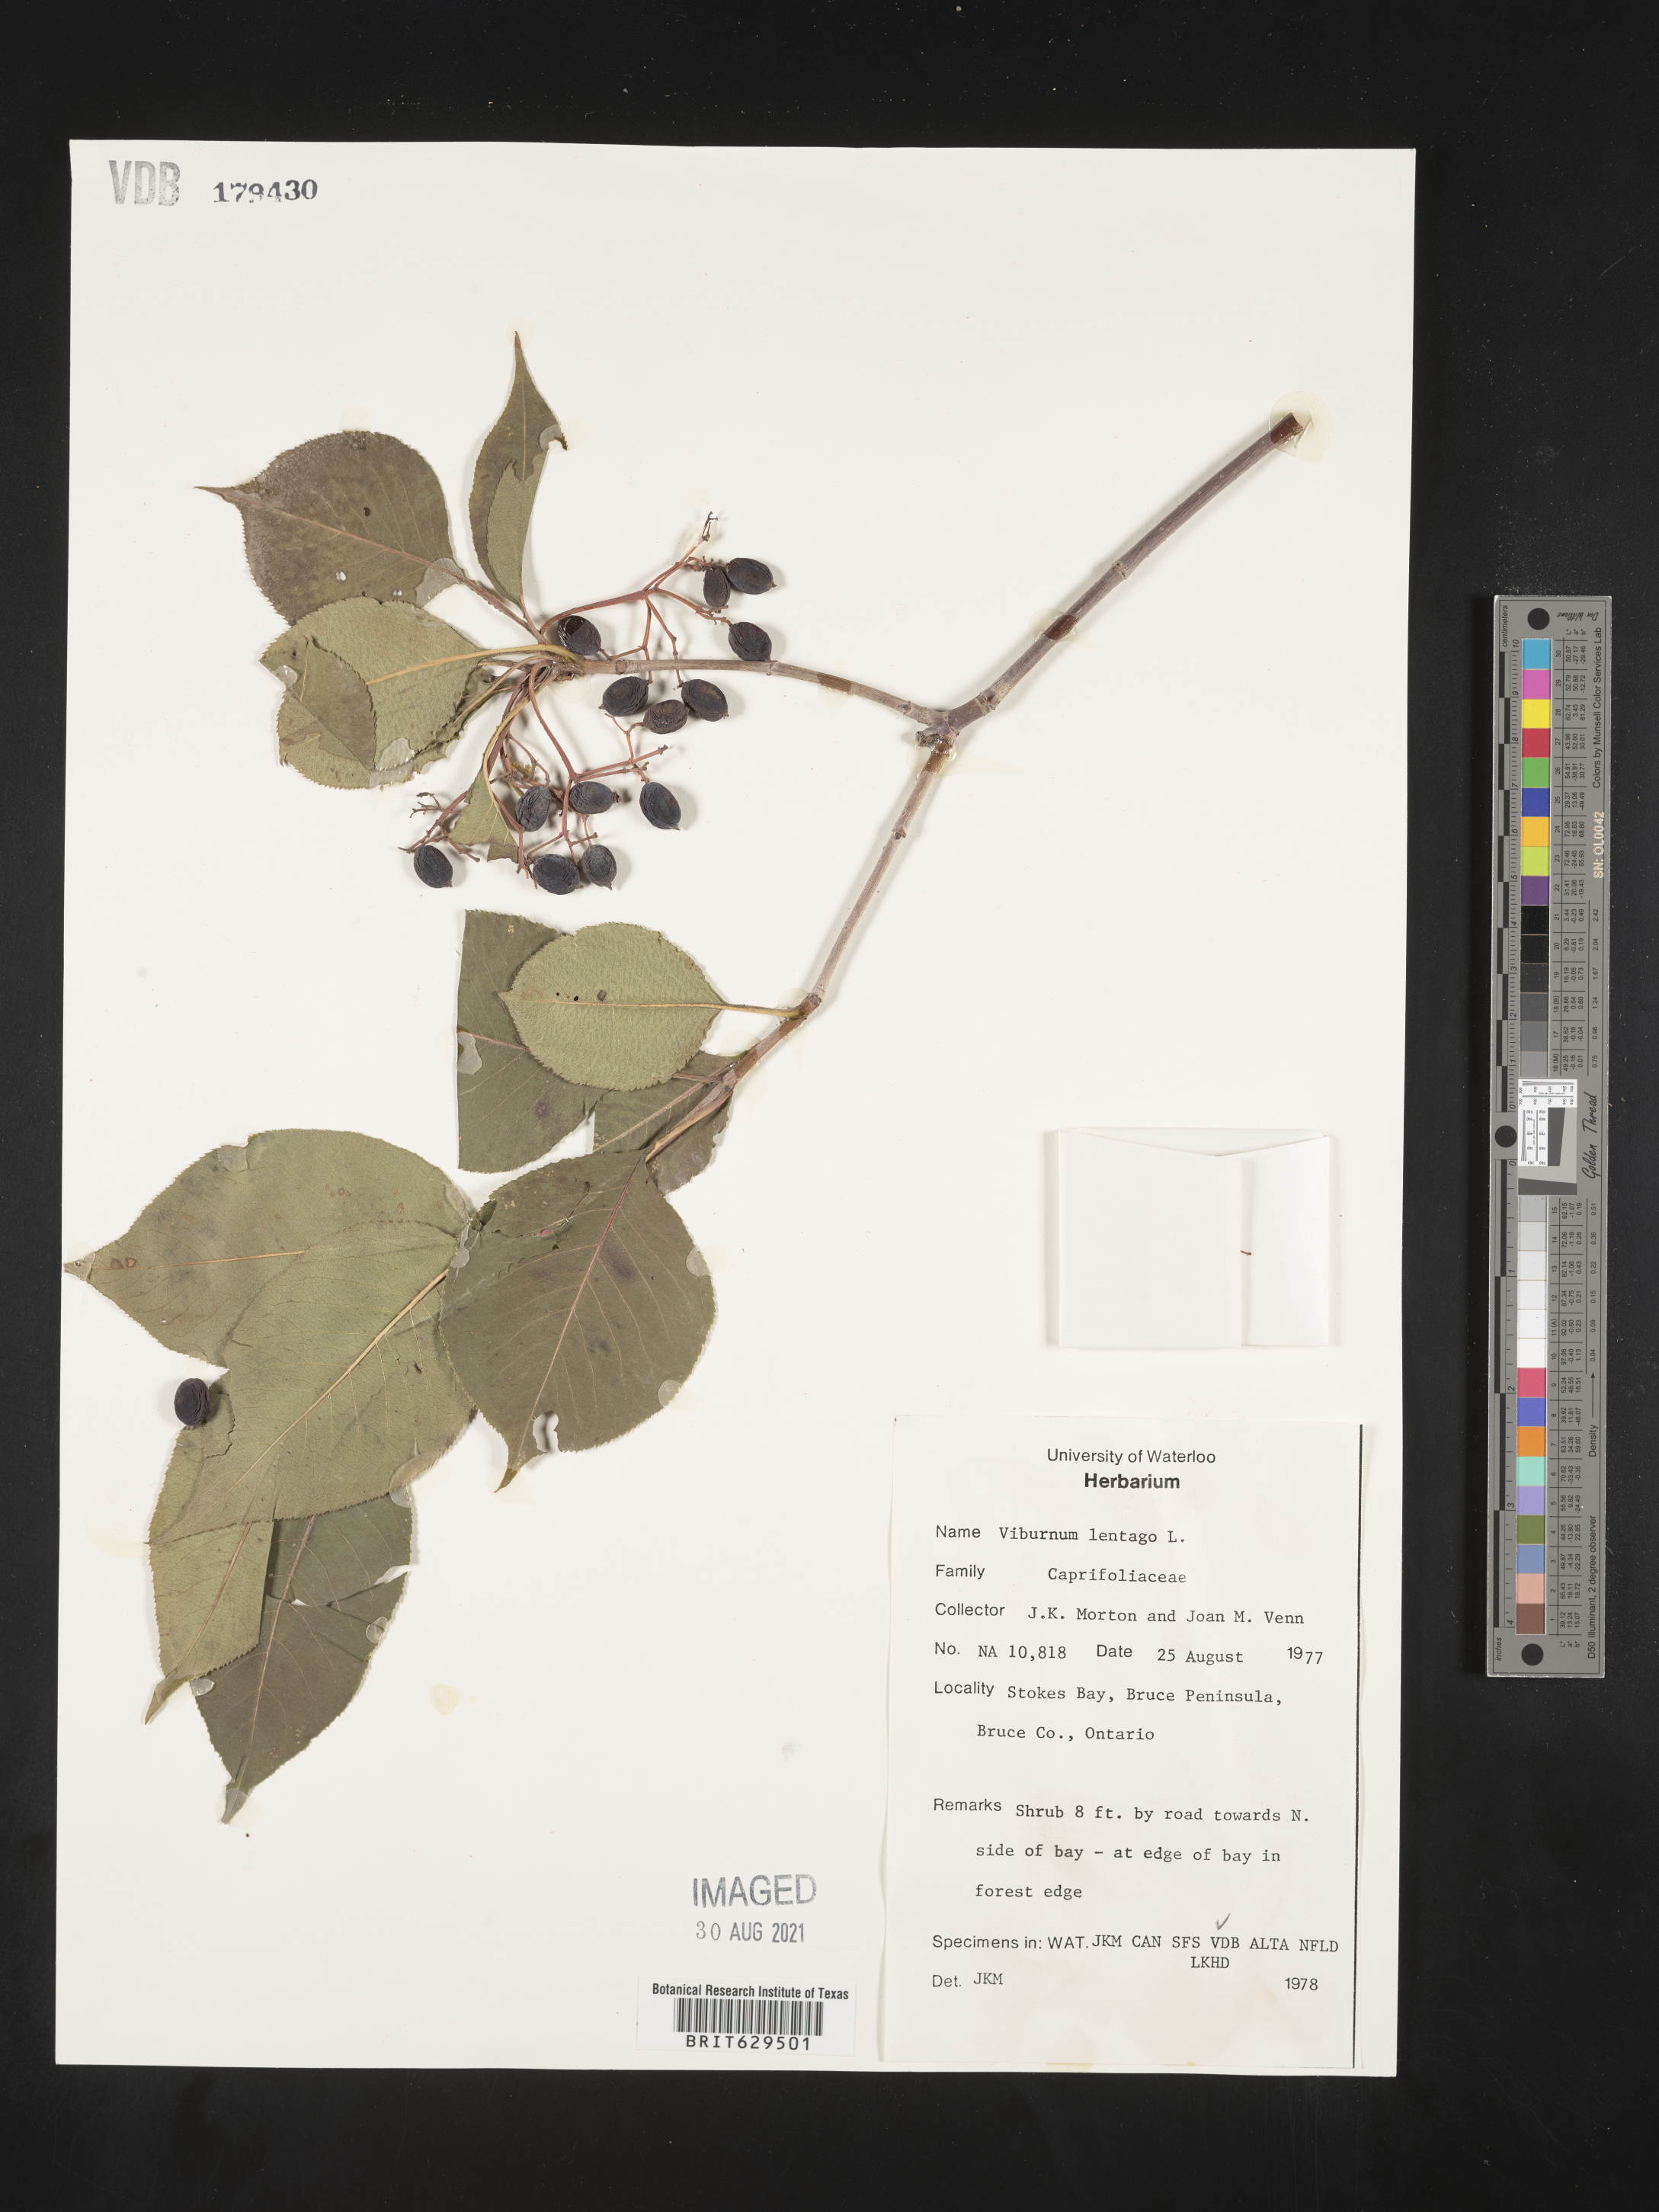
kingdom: Plantae
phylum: Tracheophyta
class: Magnoliopsida
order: Dipsacales
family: Viburnaceae
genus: Viburnum
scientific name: Viburnum lentago
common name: Black haw
